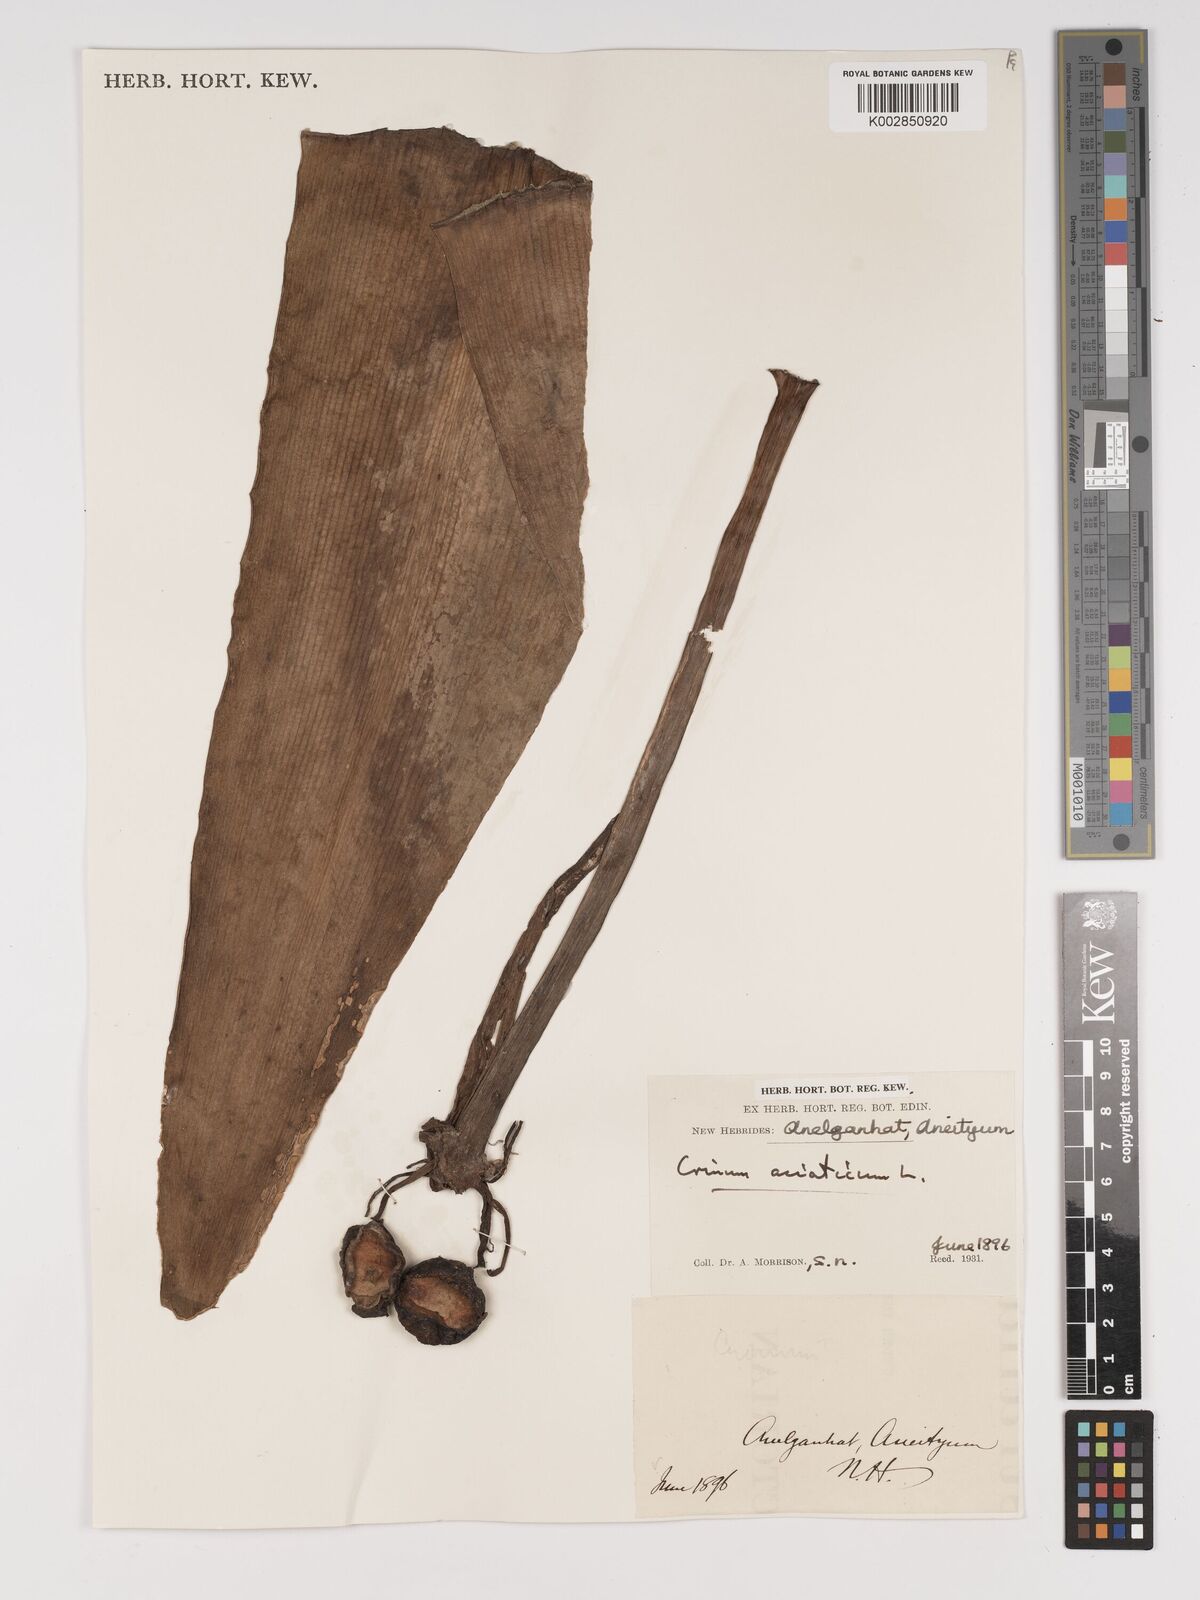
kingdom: Plantae
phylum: Tracheophyta
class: Liliopsida
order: Asparagales
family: Amaryllidaceae
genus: Crinum
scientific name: Crinum asiaticum
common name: Poisonbulb
